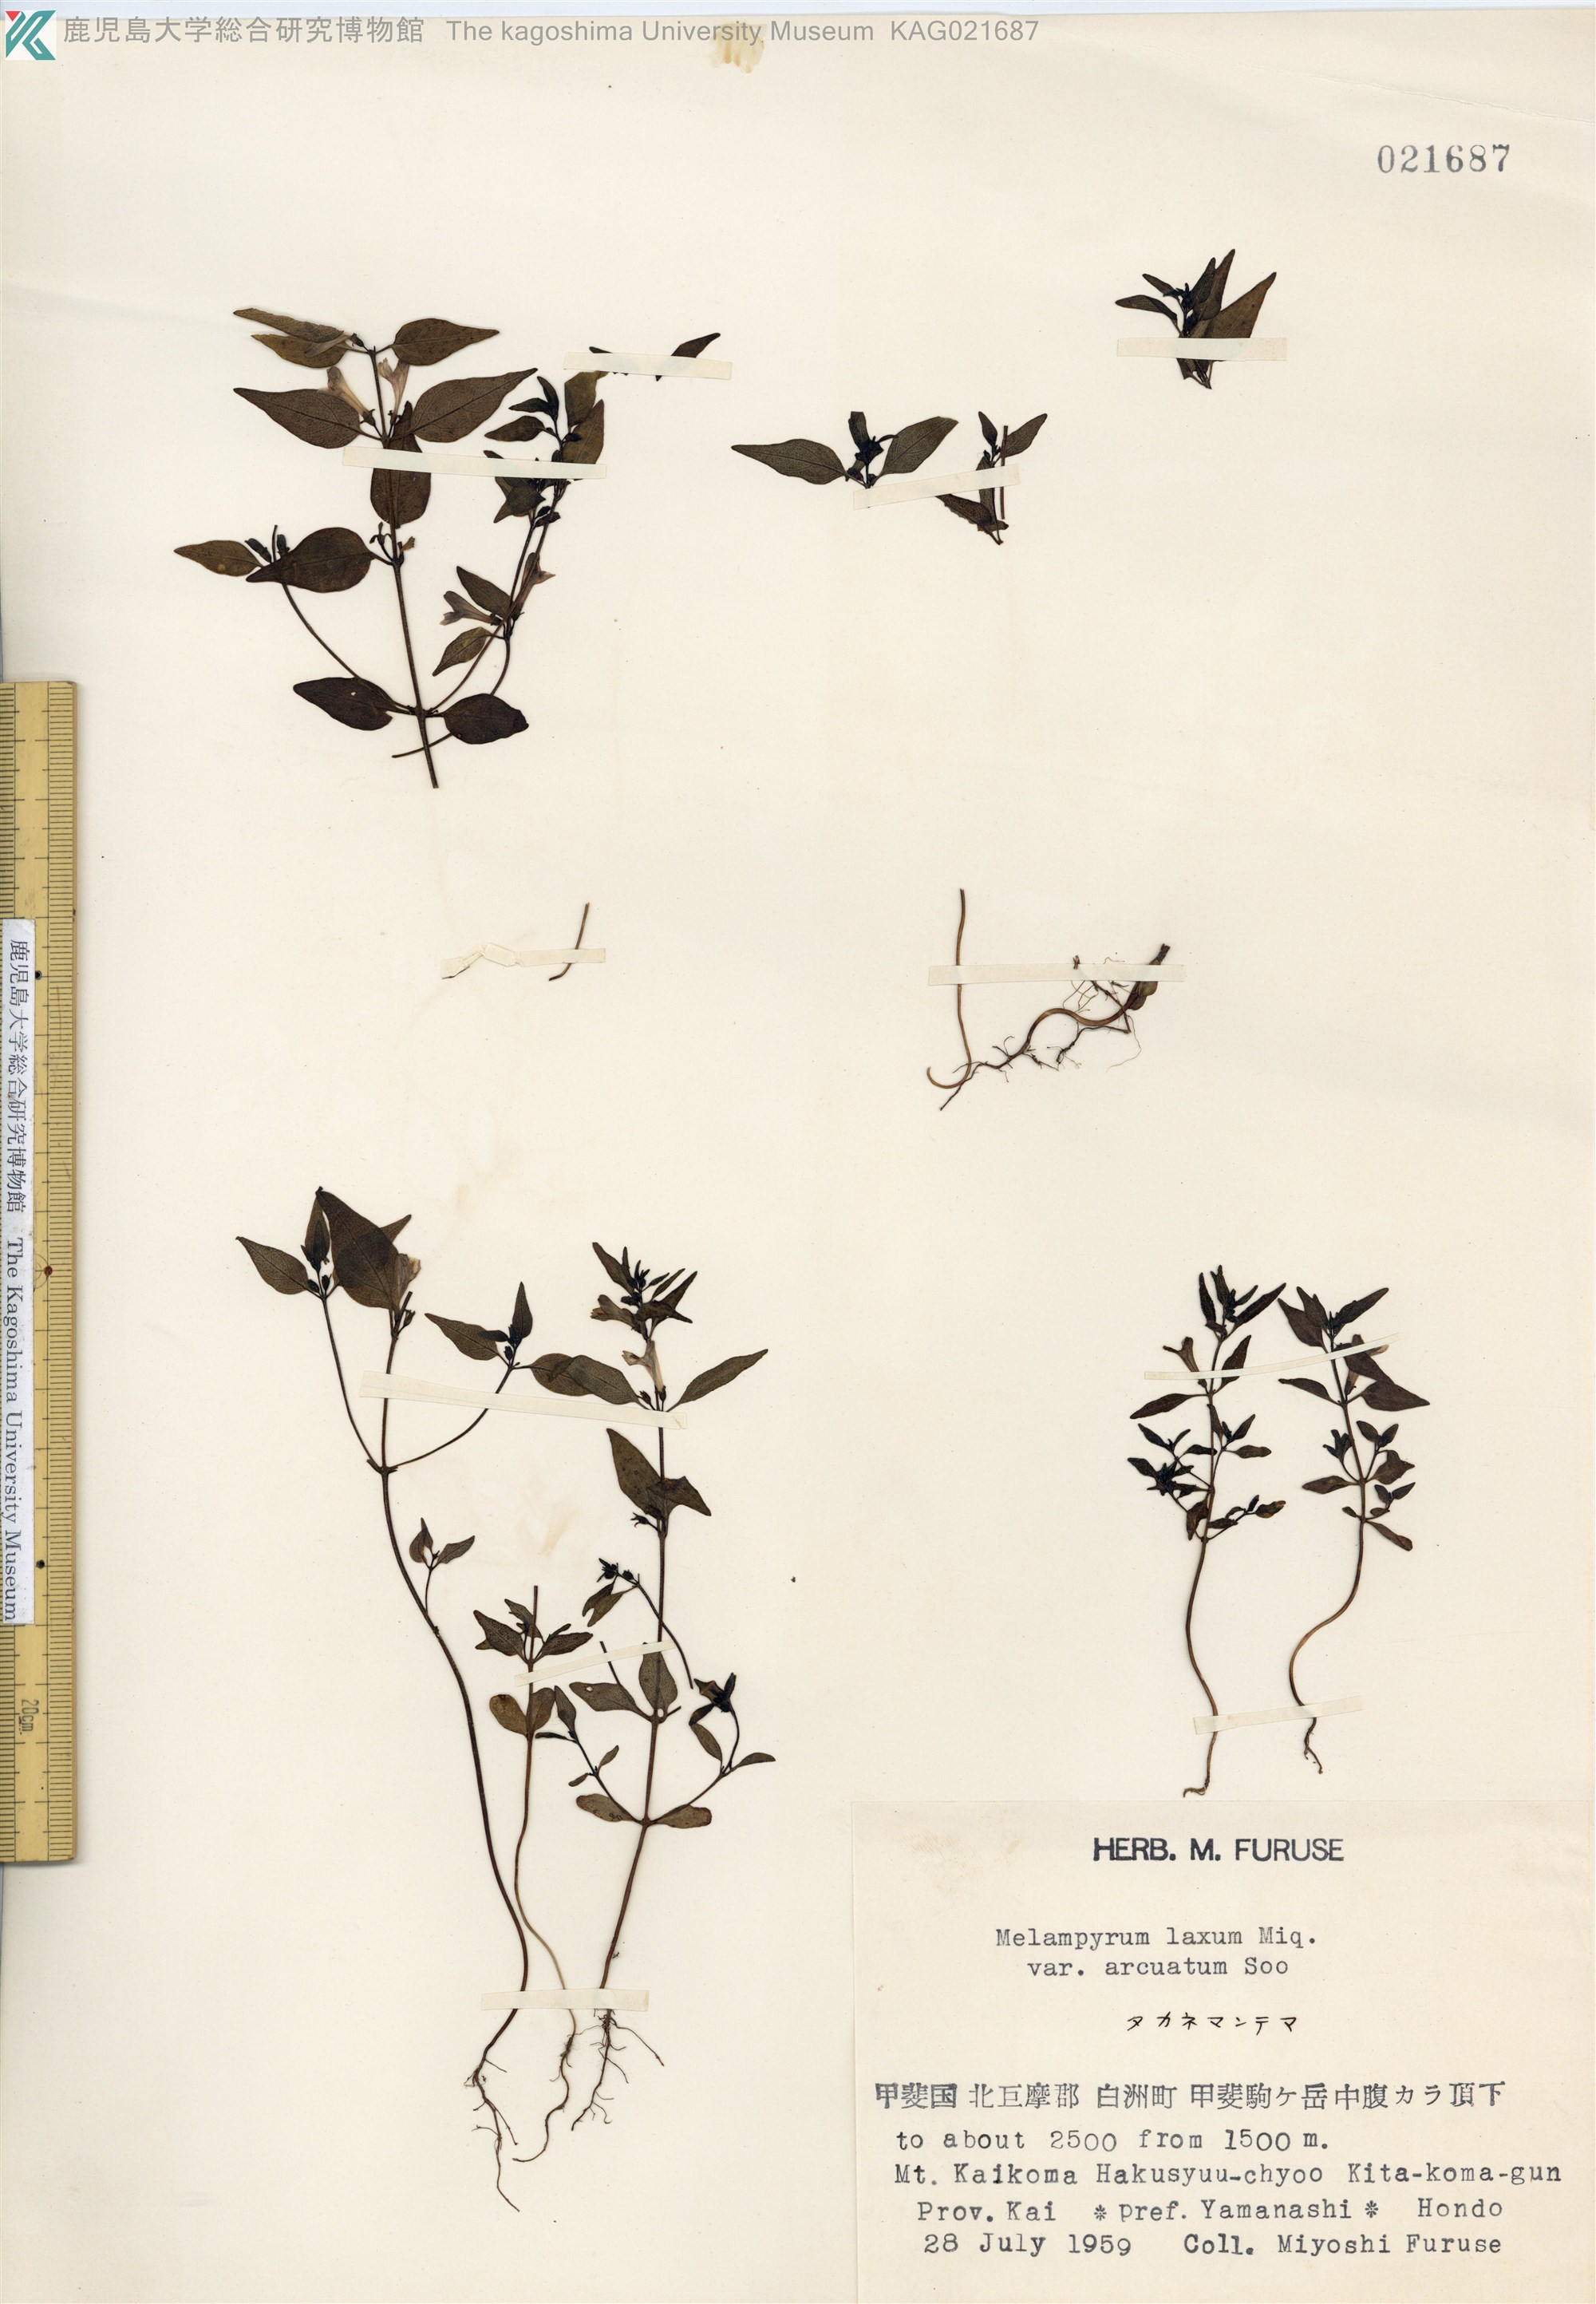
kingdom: Plantae
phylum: Tracheophyta
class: Magnoliopsida
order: Lamiales
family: Orobanchaceae
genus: Melampyrum
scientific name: Melampyrum laxum
